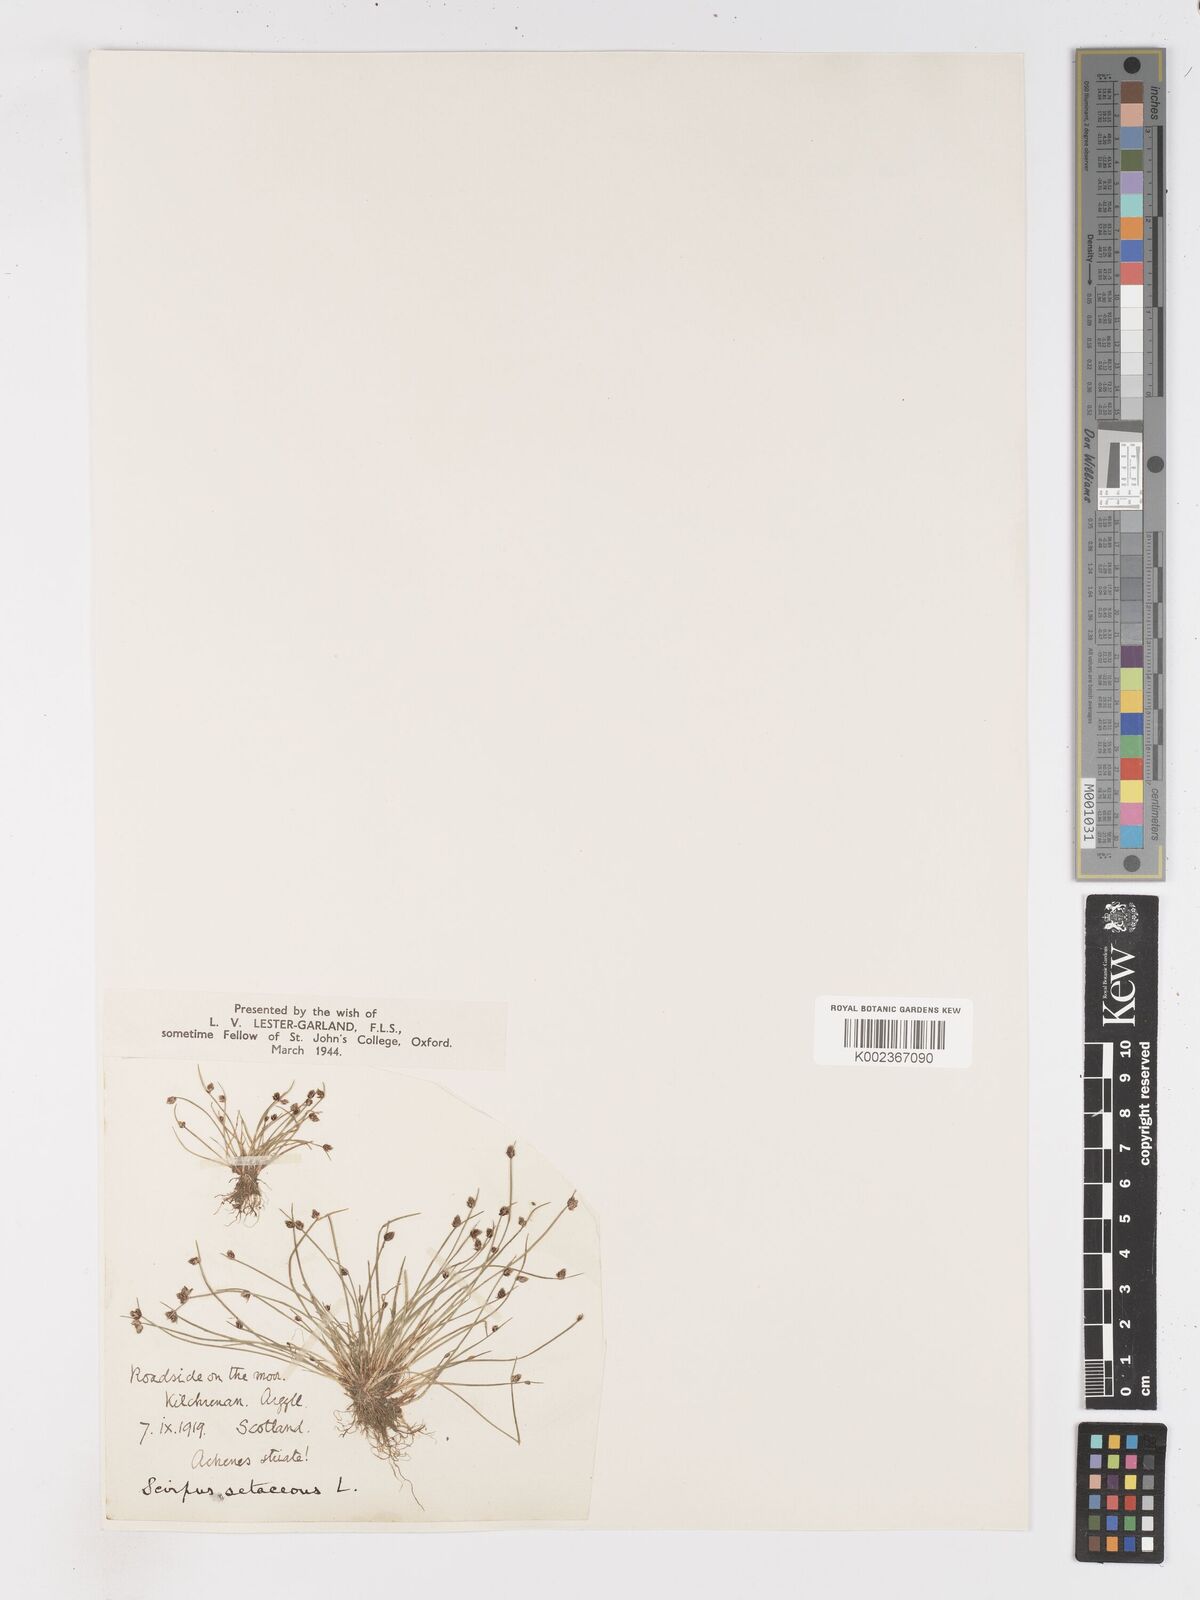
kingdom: Plantae
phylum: Tracheophyta
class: Liliopsida
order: Poales
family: Cyperaceae
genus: Isolepis
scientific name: Isolepis setacea
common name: Bristle club-rush
